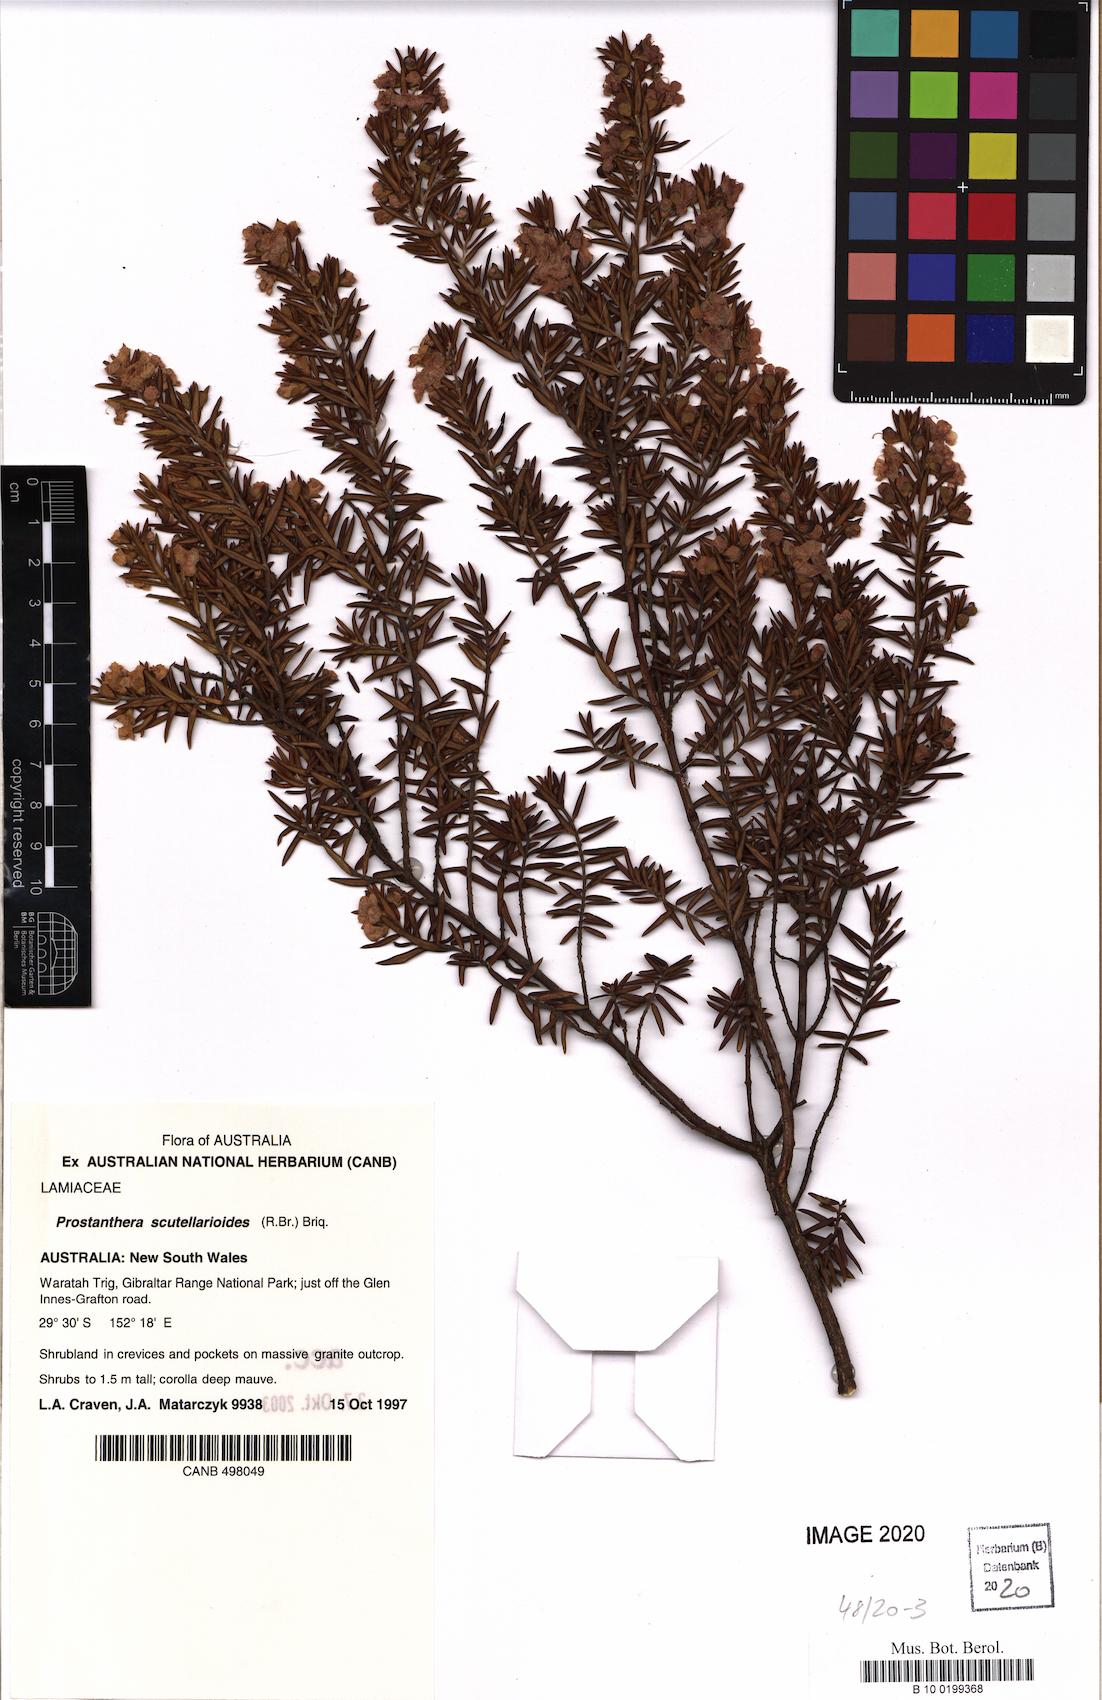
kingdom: Plantae
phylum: Tracheophyta
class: Magnoliopsida
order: Lamiales
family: Lamiaceae
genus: Prostanthera
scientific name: Prostanthera scutellarioides
